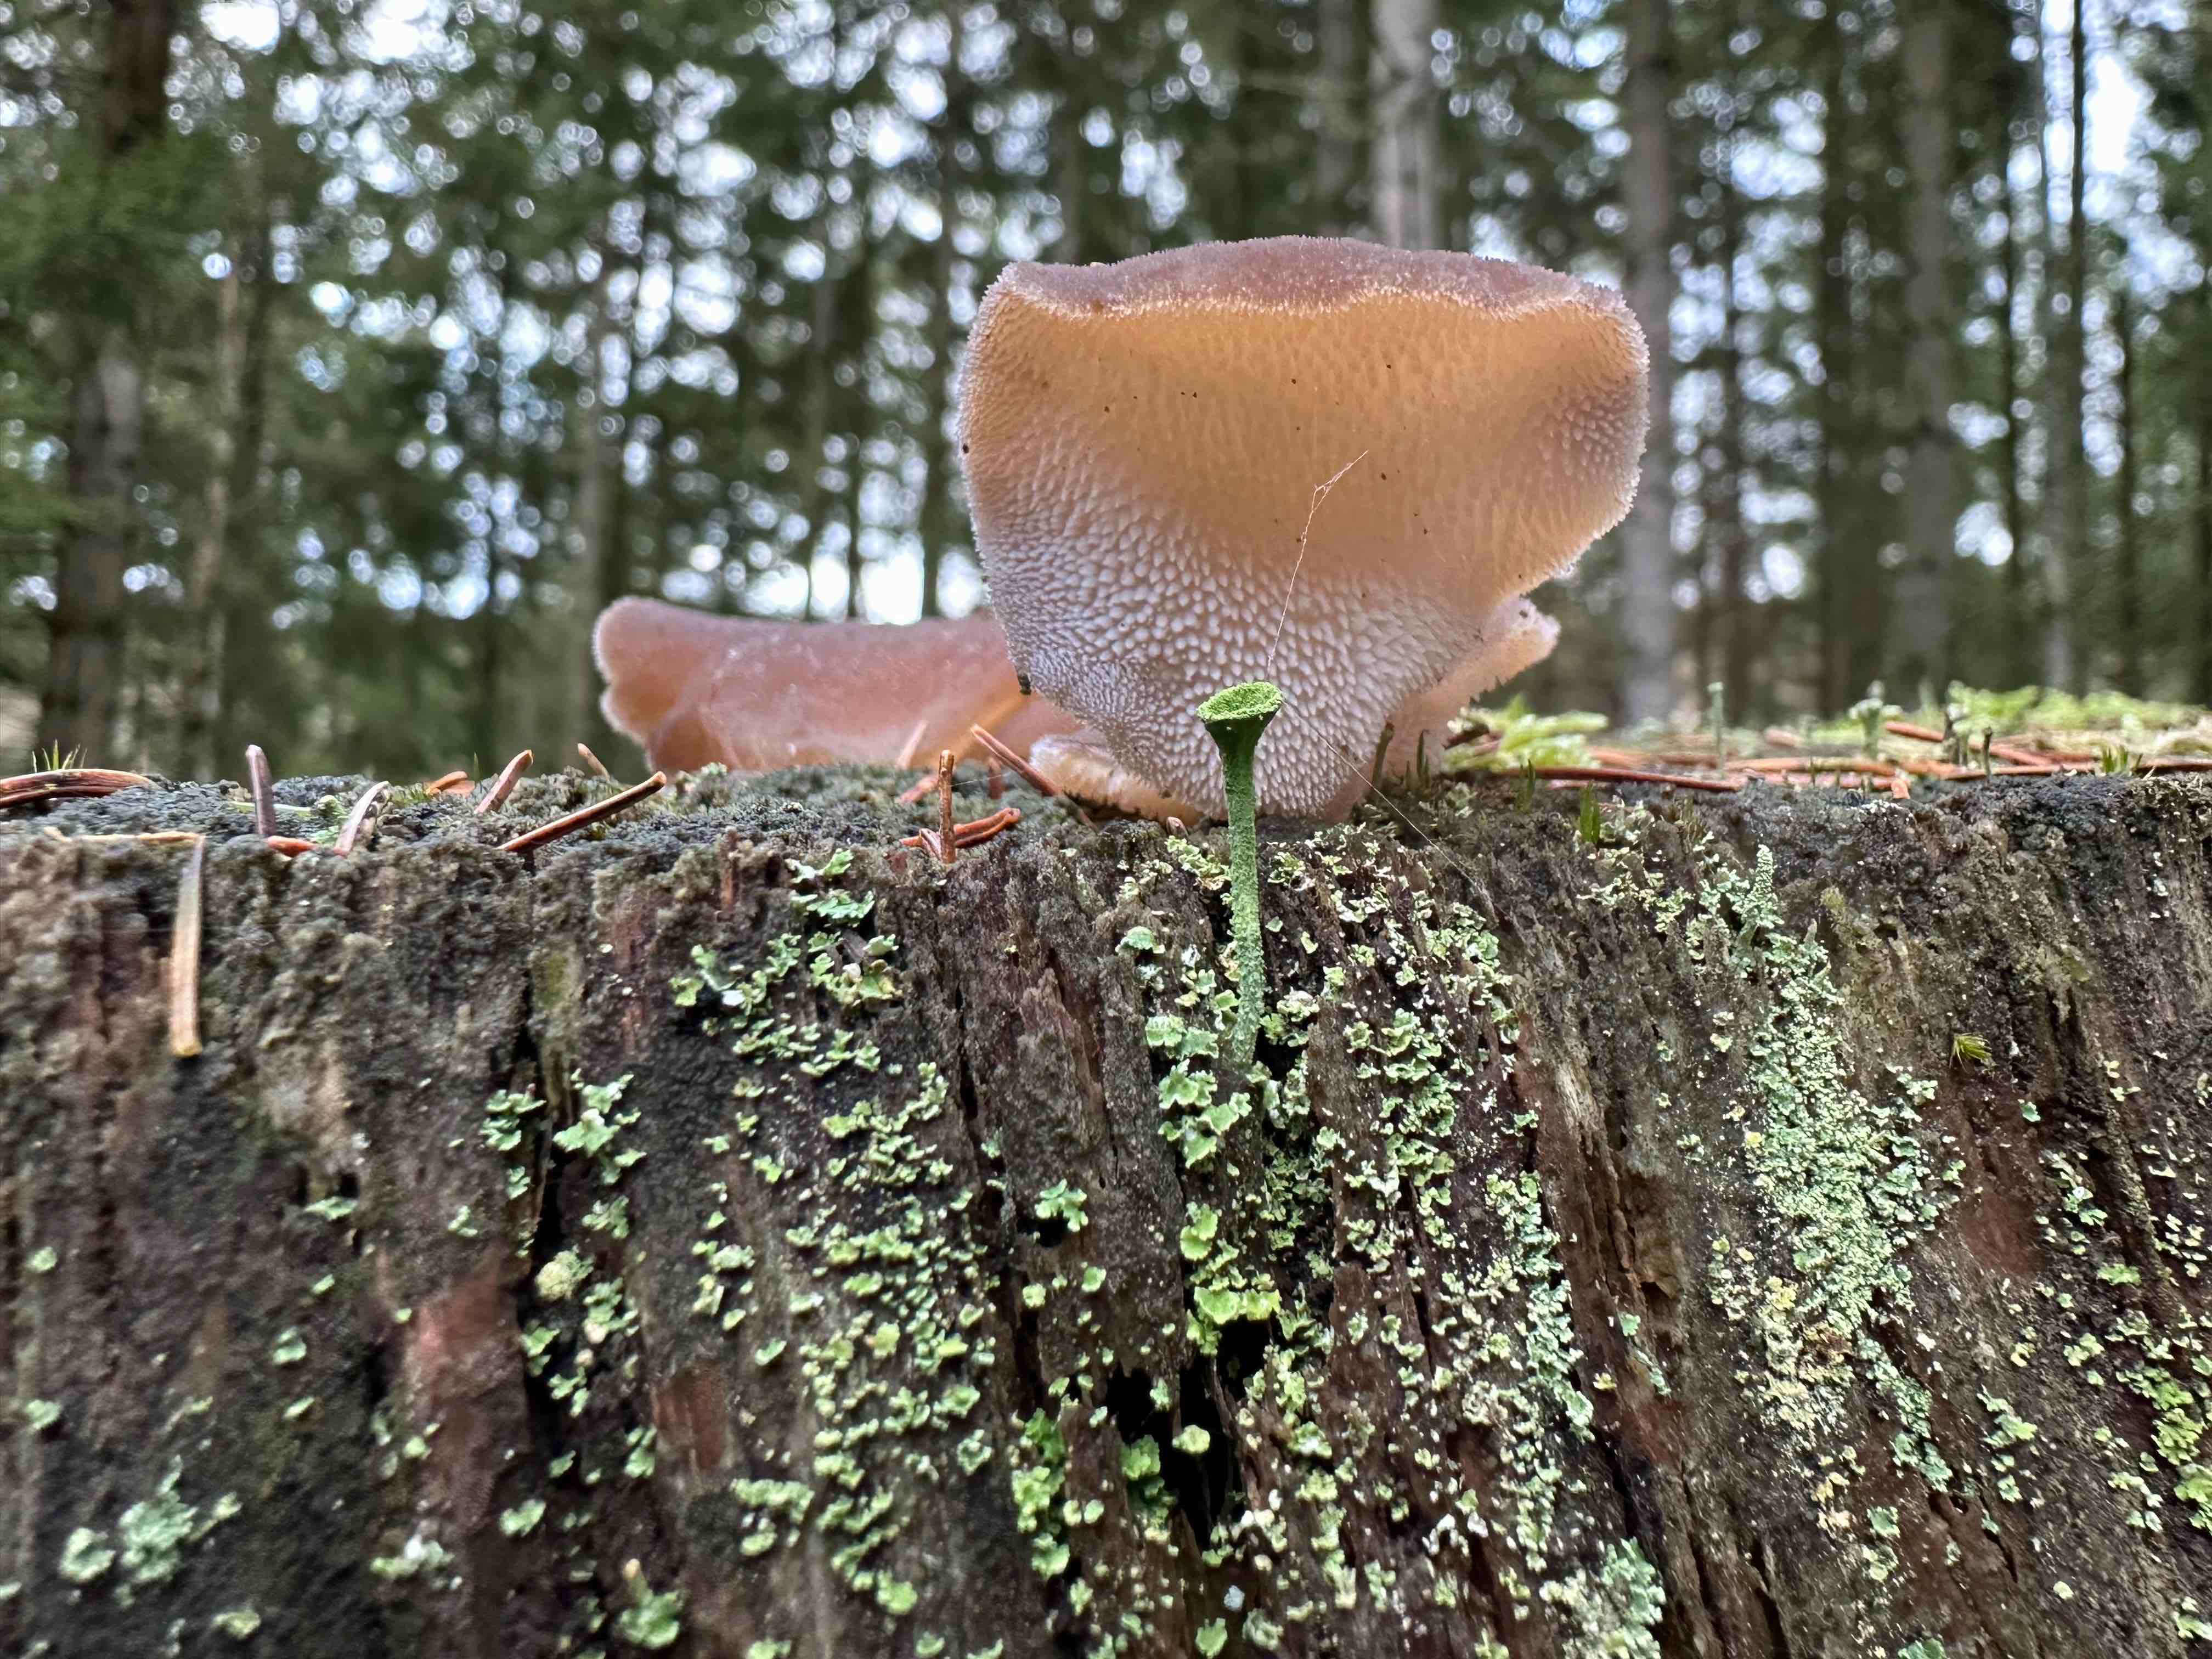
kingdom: Fungi
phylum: Basidiomycota
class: Agaricomycetes
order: Auriculariales
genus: Pseudohydnum
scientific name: Pseudohydnum gelatinosum
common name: bævretand
